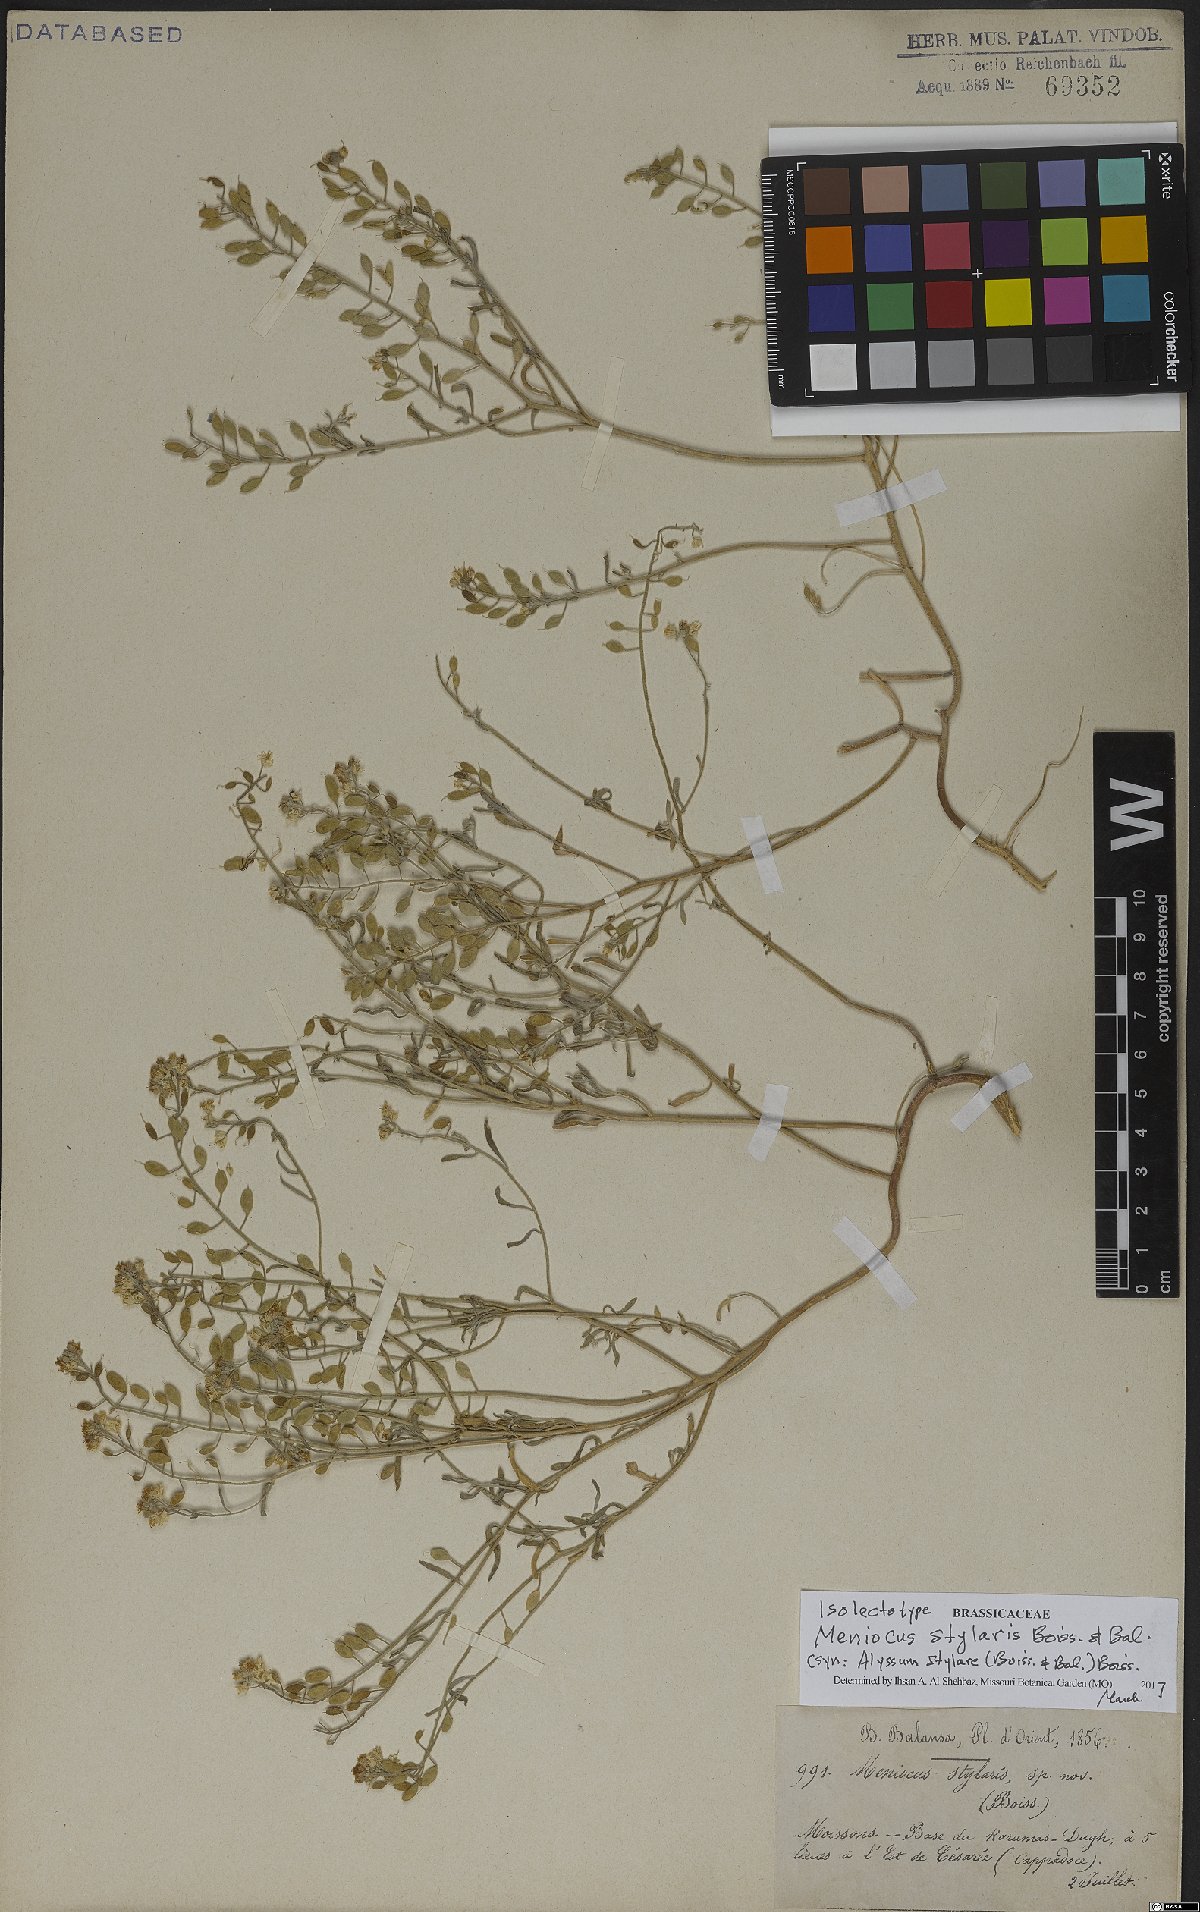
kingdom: Plantae
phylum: Tracheophyta
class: Magnoliopsida
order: Brassicales
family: Brassicaceae
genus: Meniocus
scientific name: Meniocus stylaris
